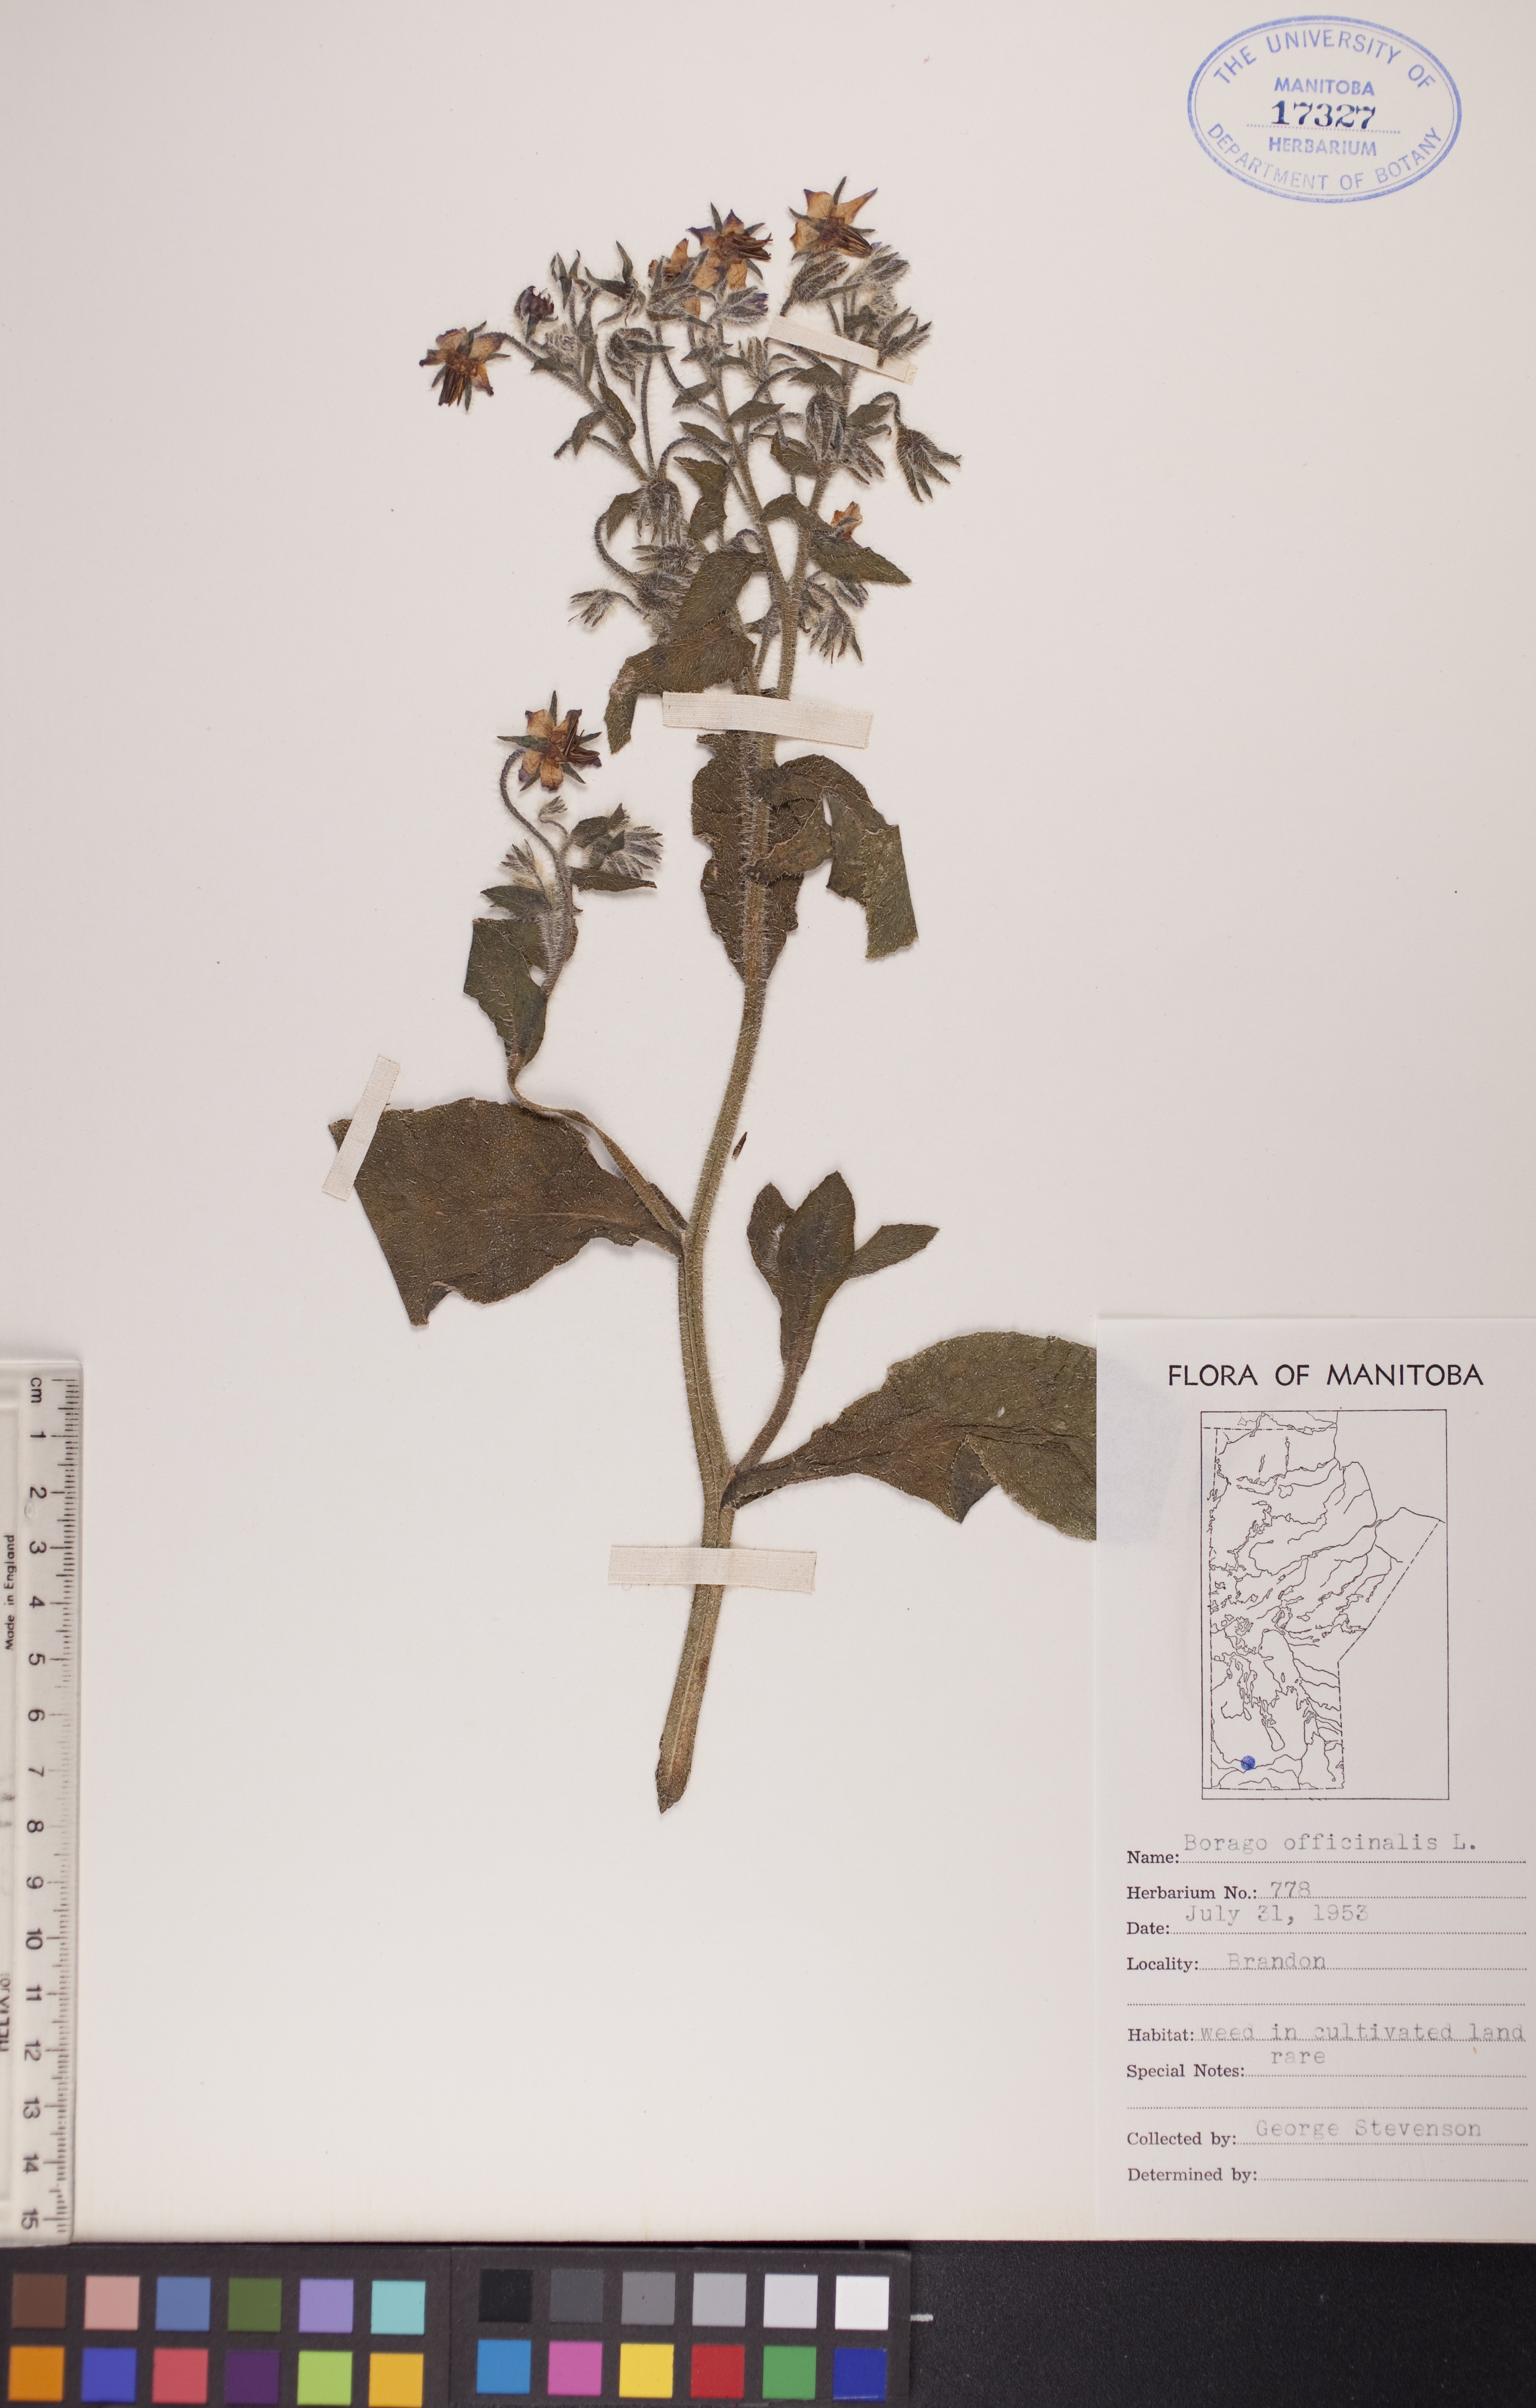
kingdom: Plantae
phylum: Tracheophyta
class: Magnoliopsida
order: Boraginales
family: Boraginaceae
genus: Borago
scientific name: Borago officinalis
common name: Borage
